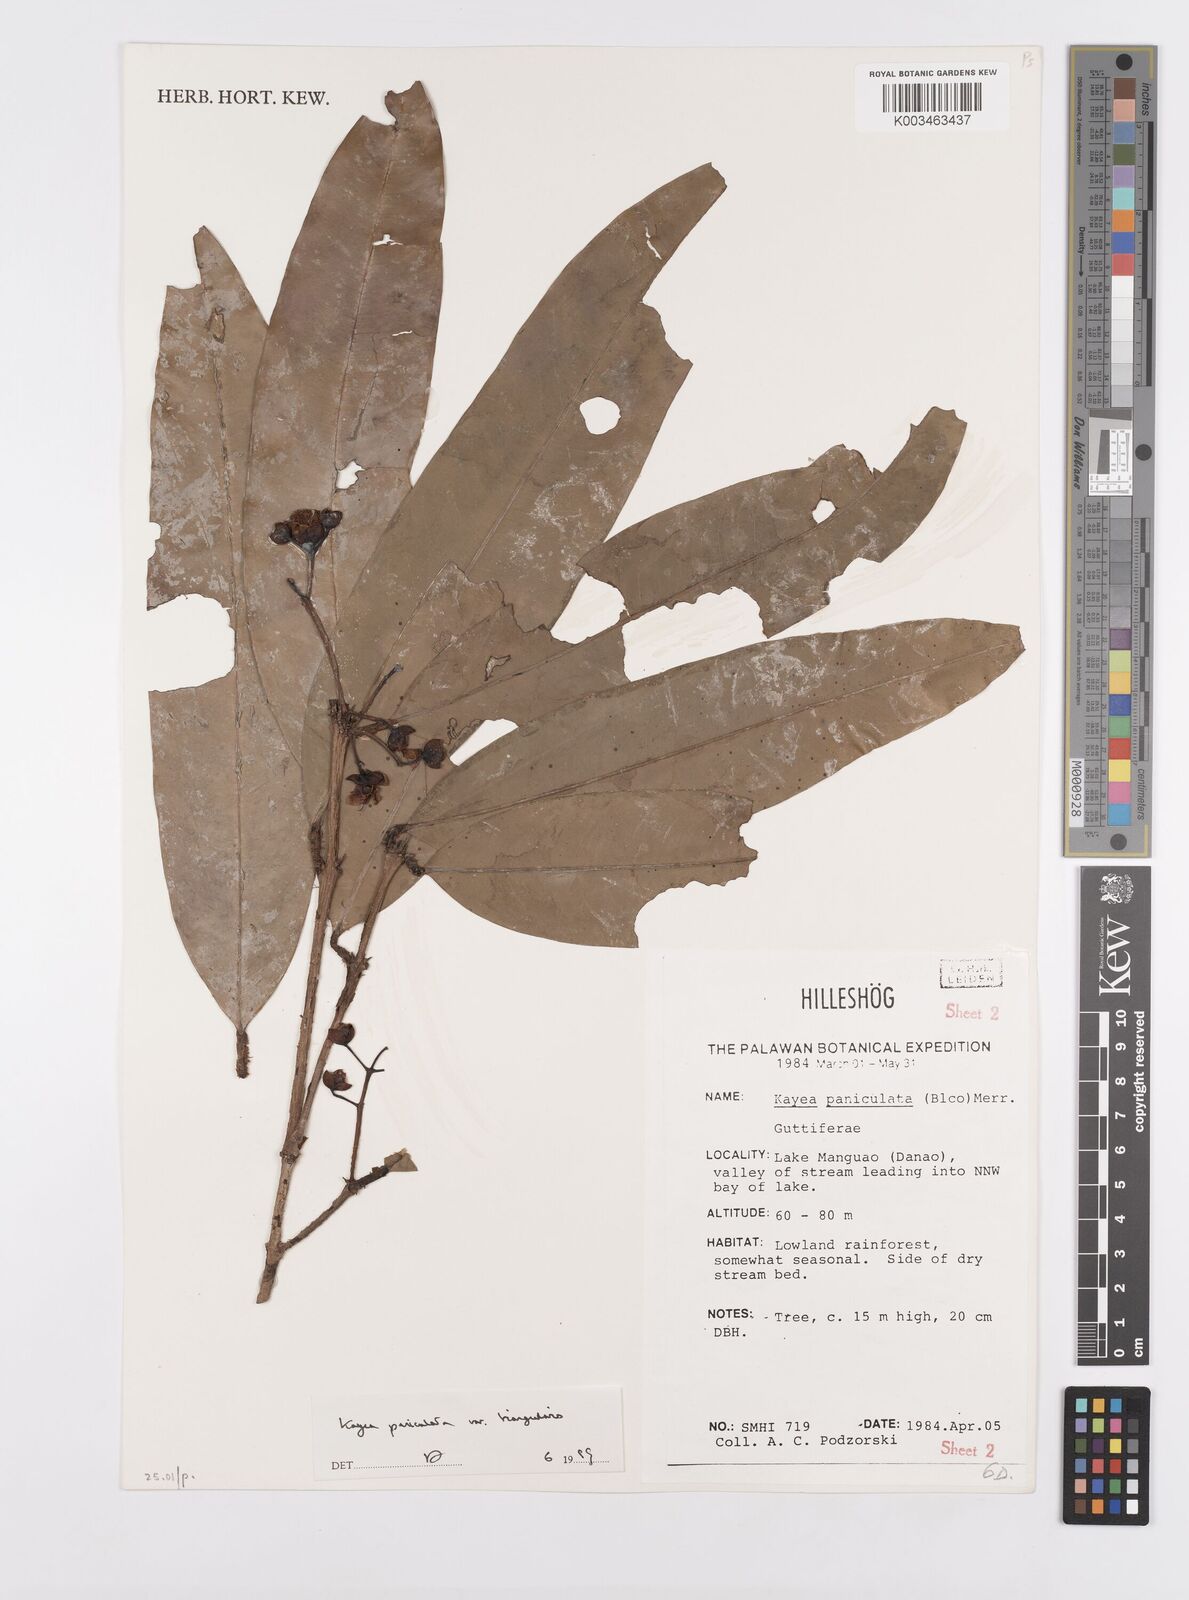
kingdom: Plantae
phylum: Tracheophyta
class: Magnoliopsida
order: Malpighiales
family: Calophyllaceae
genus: Kayea
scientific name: Kayea
